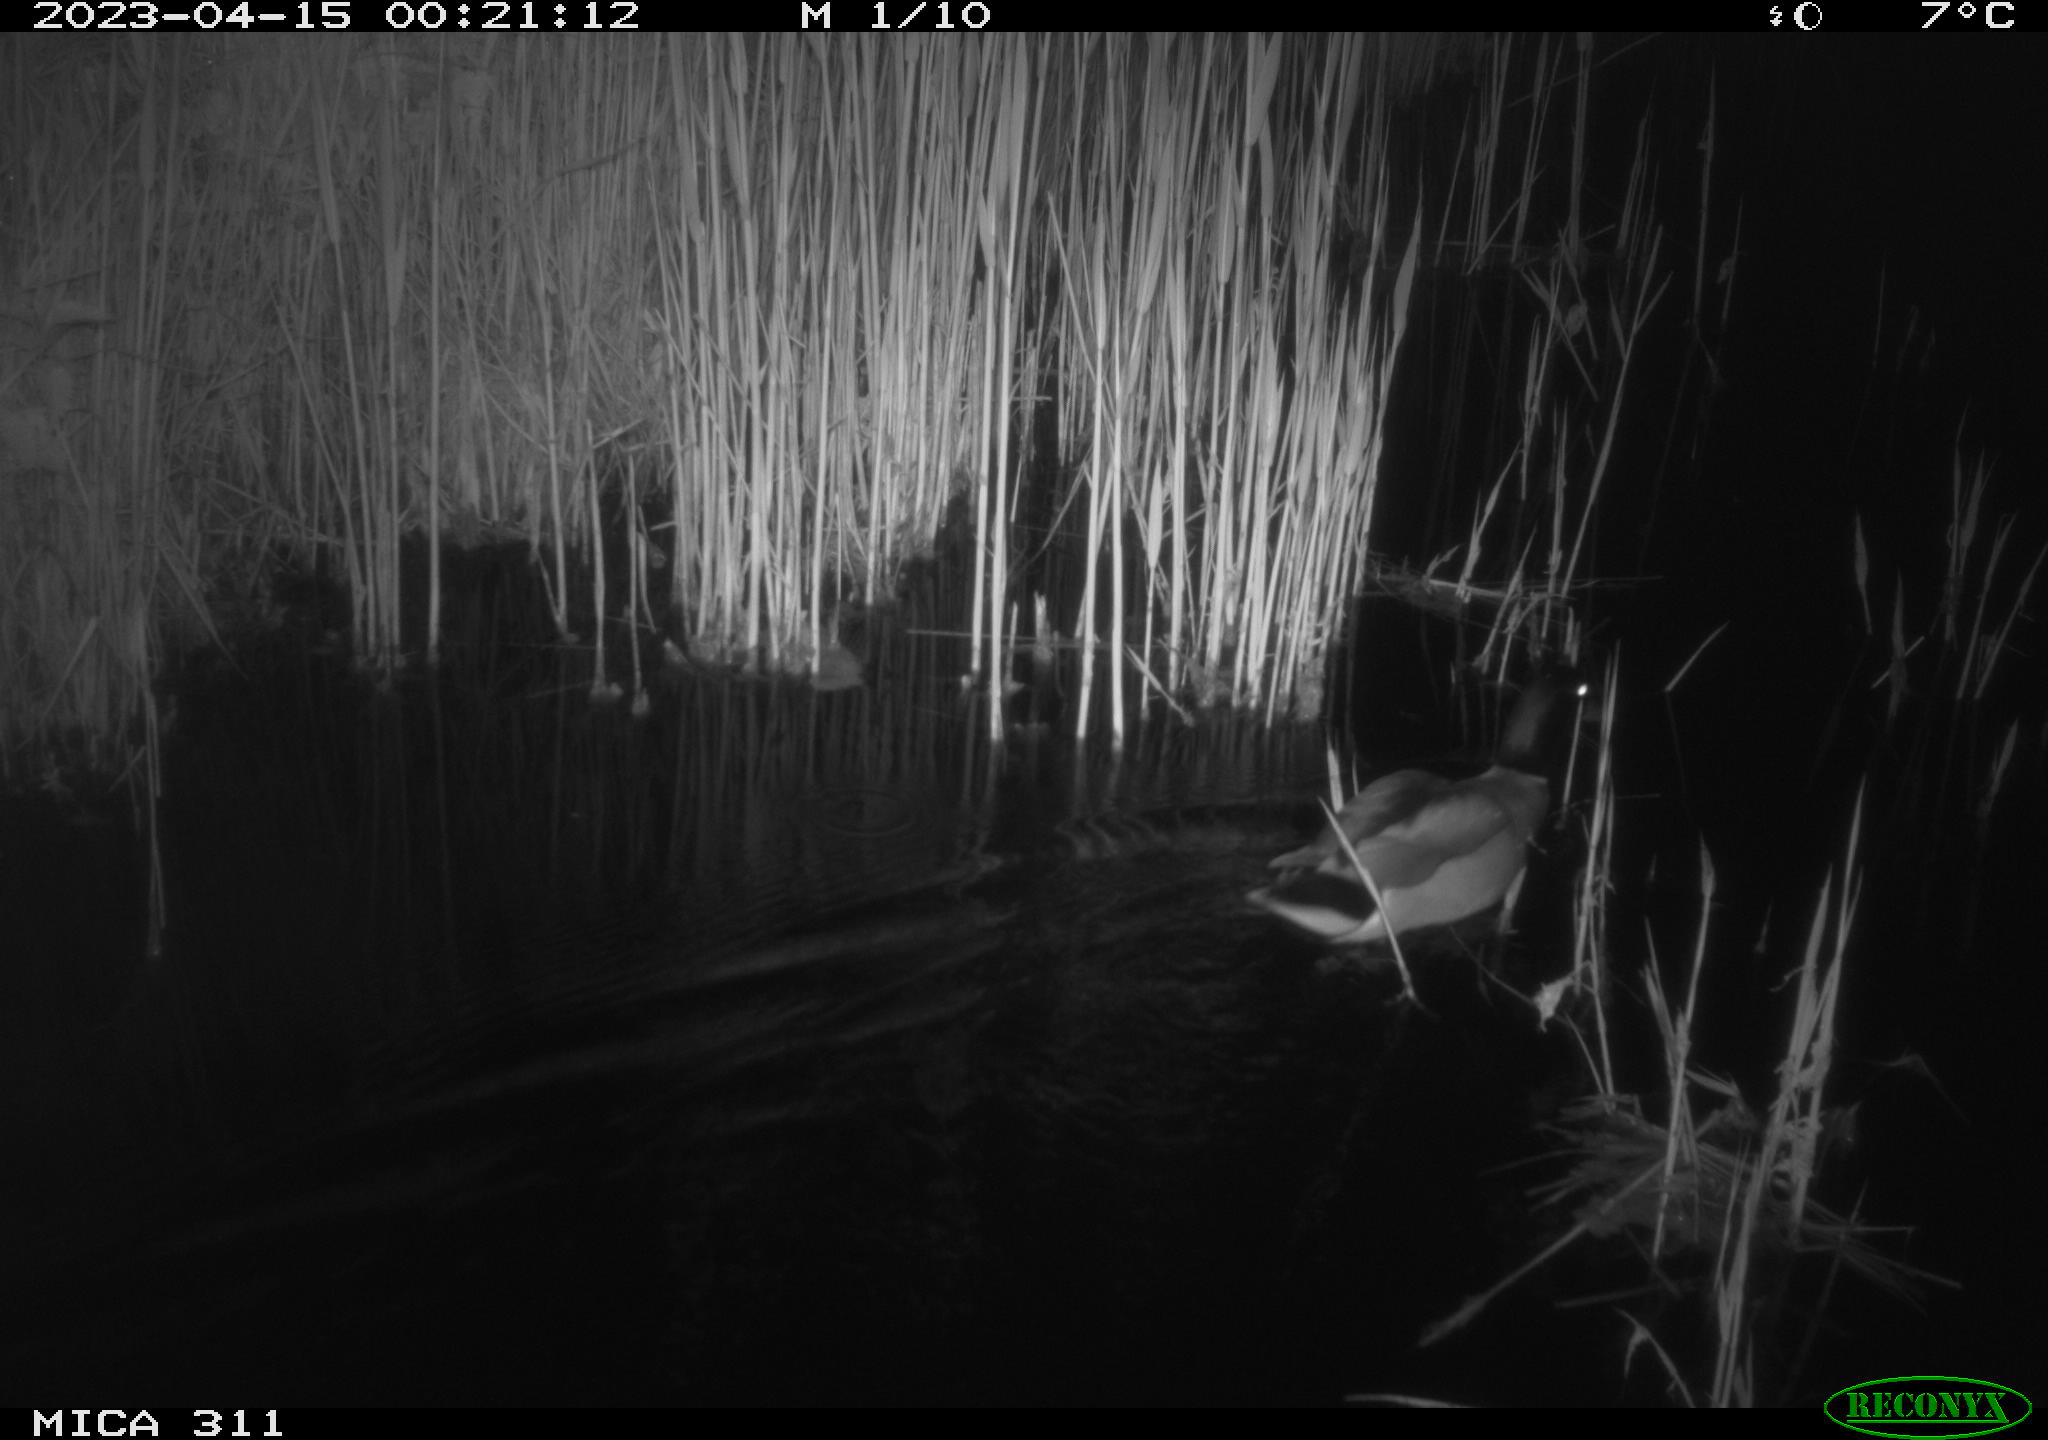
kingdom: Animalia
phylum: Chordata
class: Aves
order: Anseriformes
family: Anatidae
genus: Anas
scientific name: Anas
